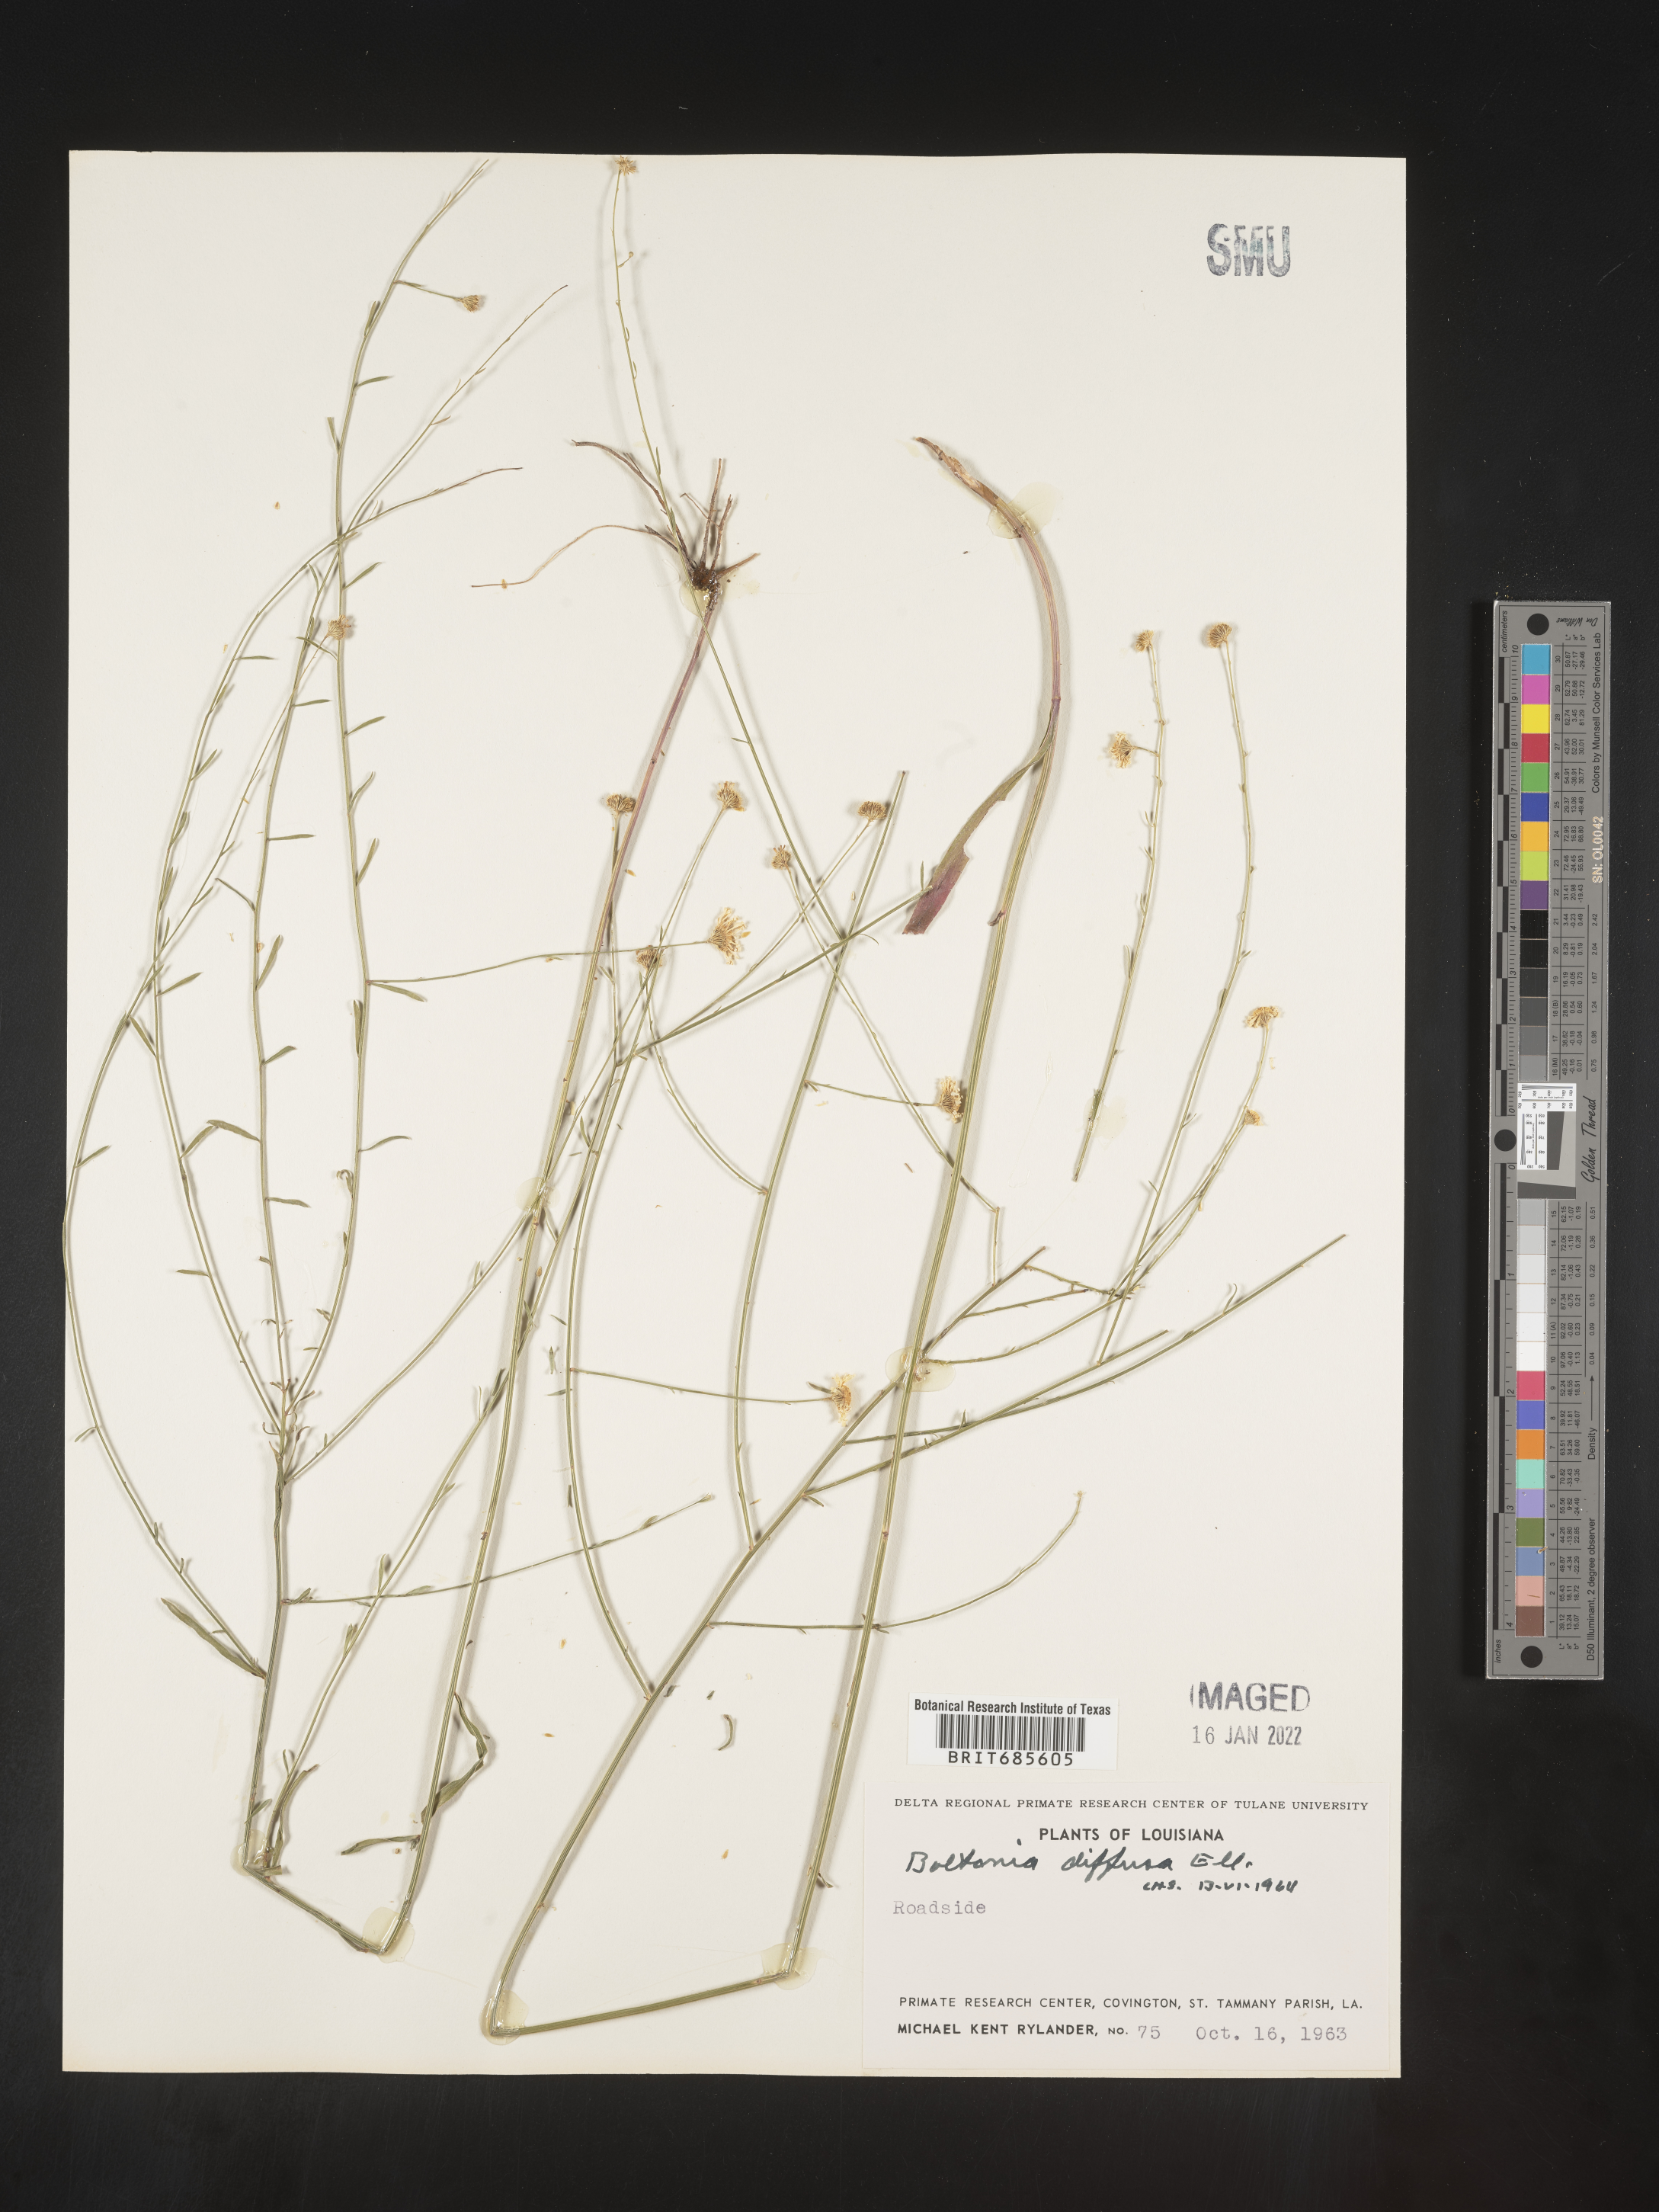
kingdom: Plantae
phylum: Tracheophyta
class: Magnoliopsida
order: Asterales
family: Asteraceae
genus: Boltonia
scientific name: Boltonia diffusa
